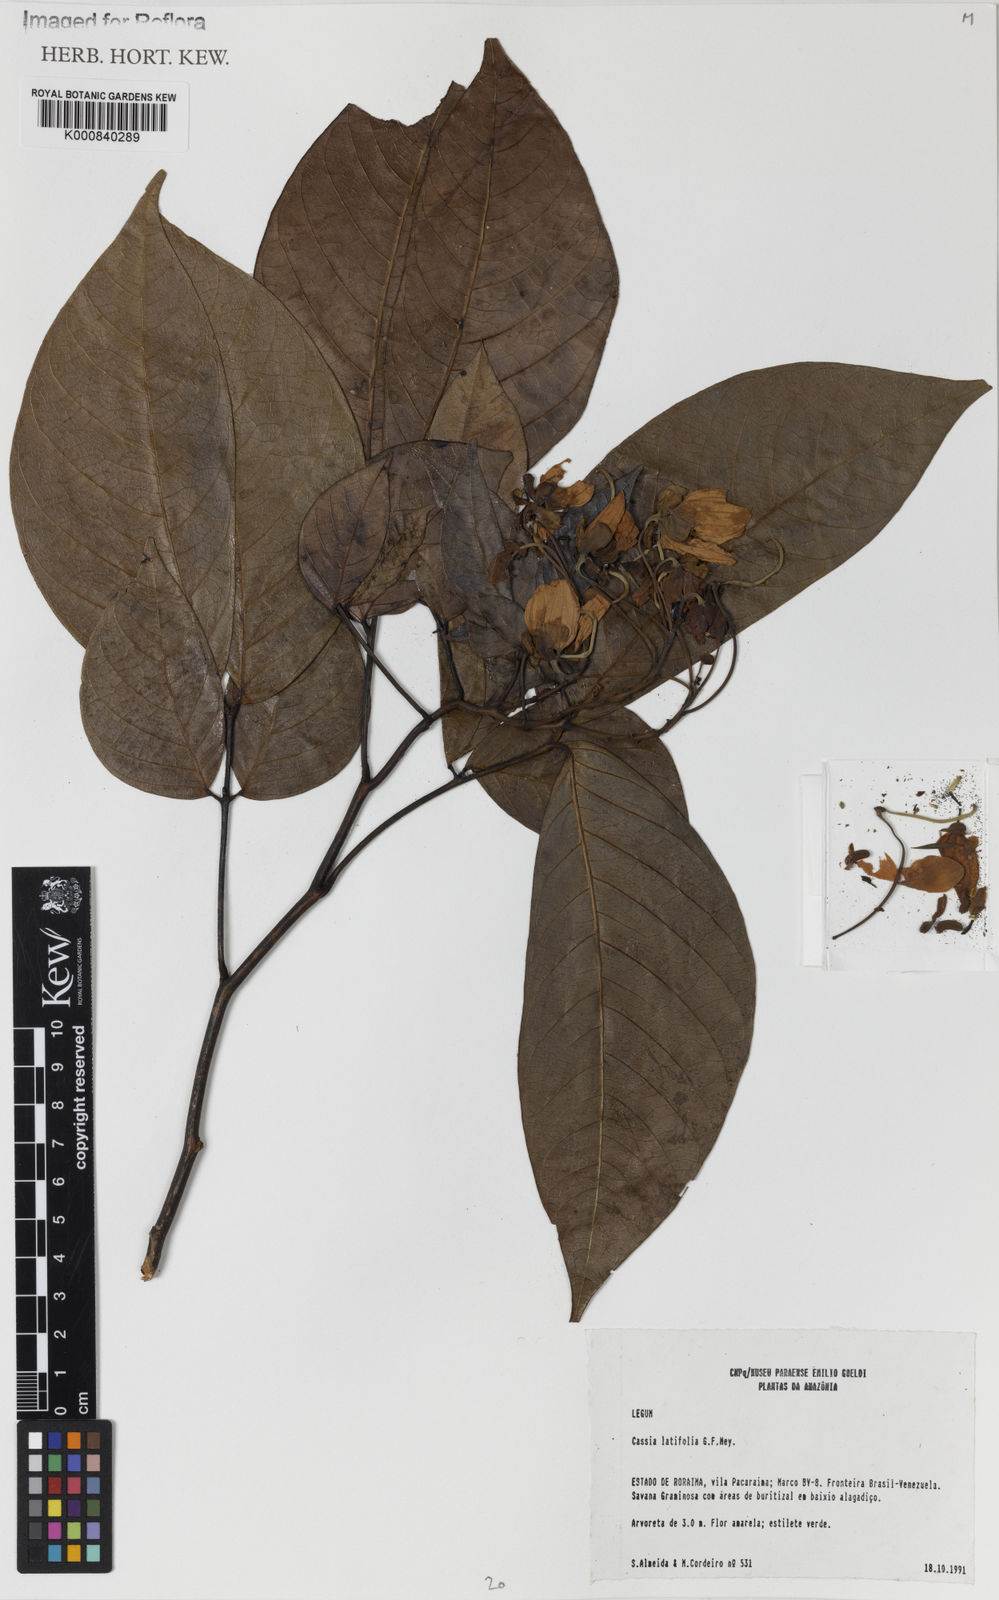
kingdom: Plantae
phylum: Tracheophyta
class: Magnoliopsida
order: Fabales
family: Fabaceae
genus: Senna
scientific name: Senna bacillaris
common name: West indian showertree
